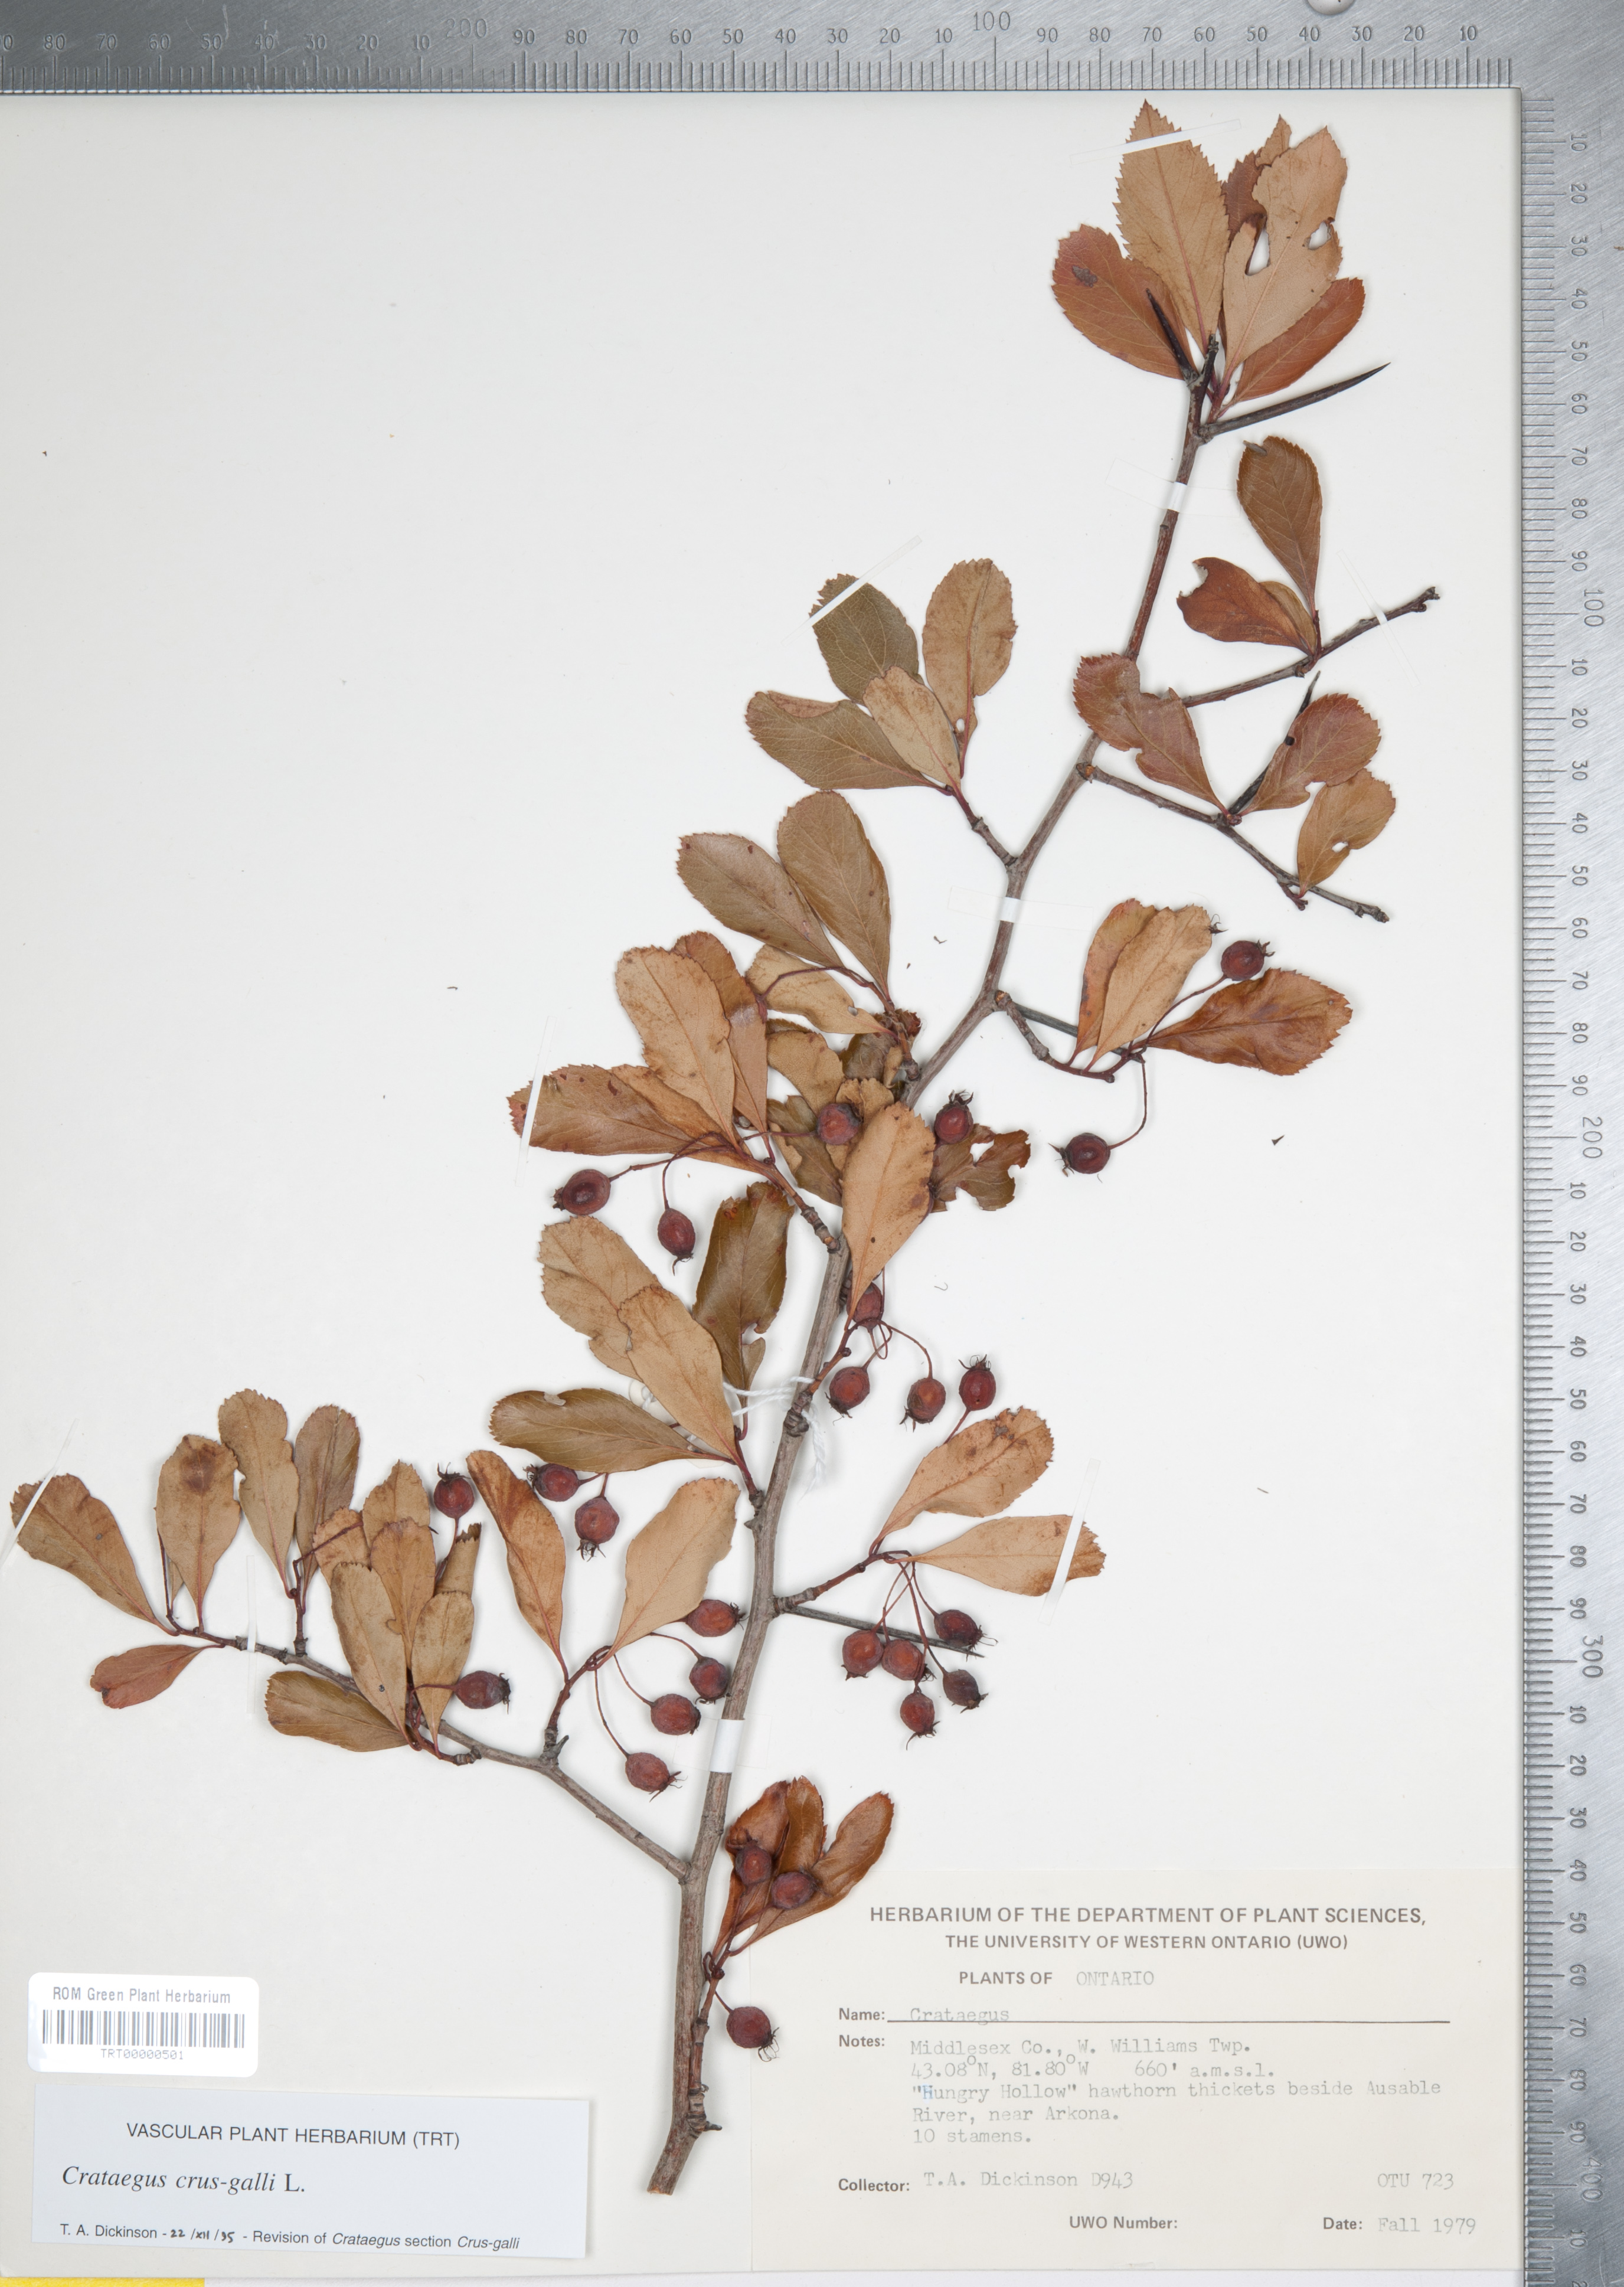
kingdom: Plantae
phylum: Tracheophyta
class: Magnoliopsida
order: Rosales
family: Rosaceae
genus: Crataegus
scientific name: Crataegus crus-galli
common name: Cockspurthorn
